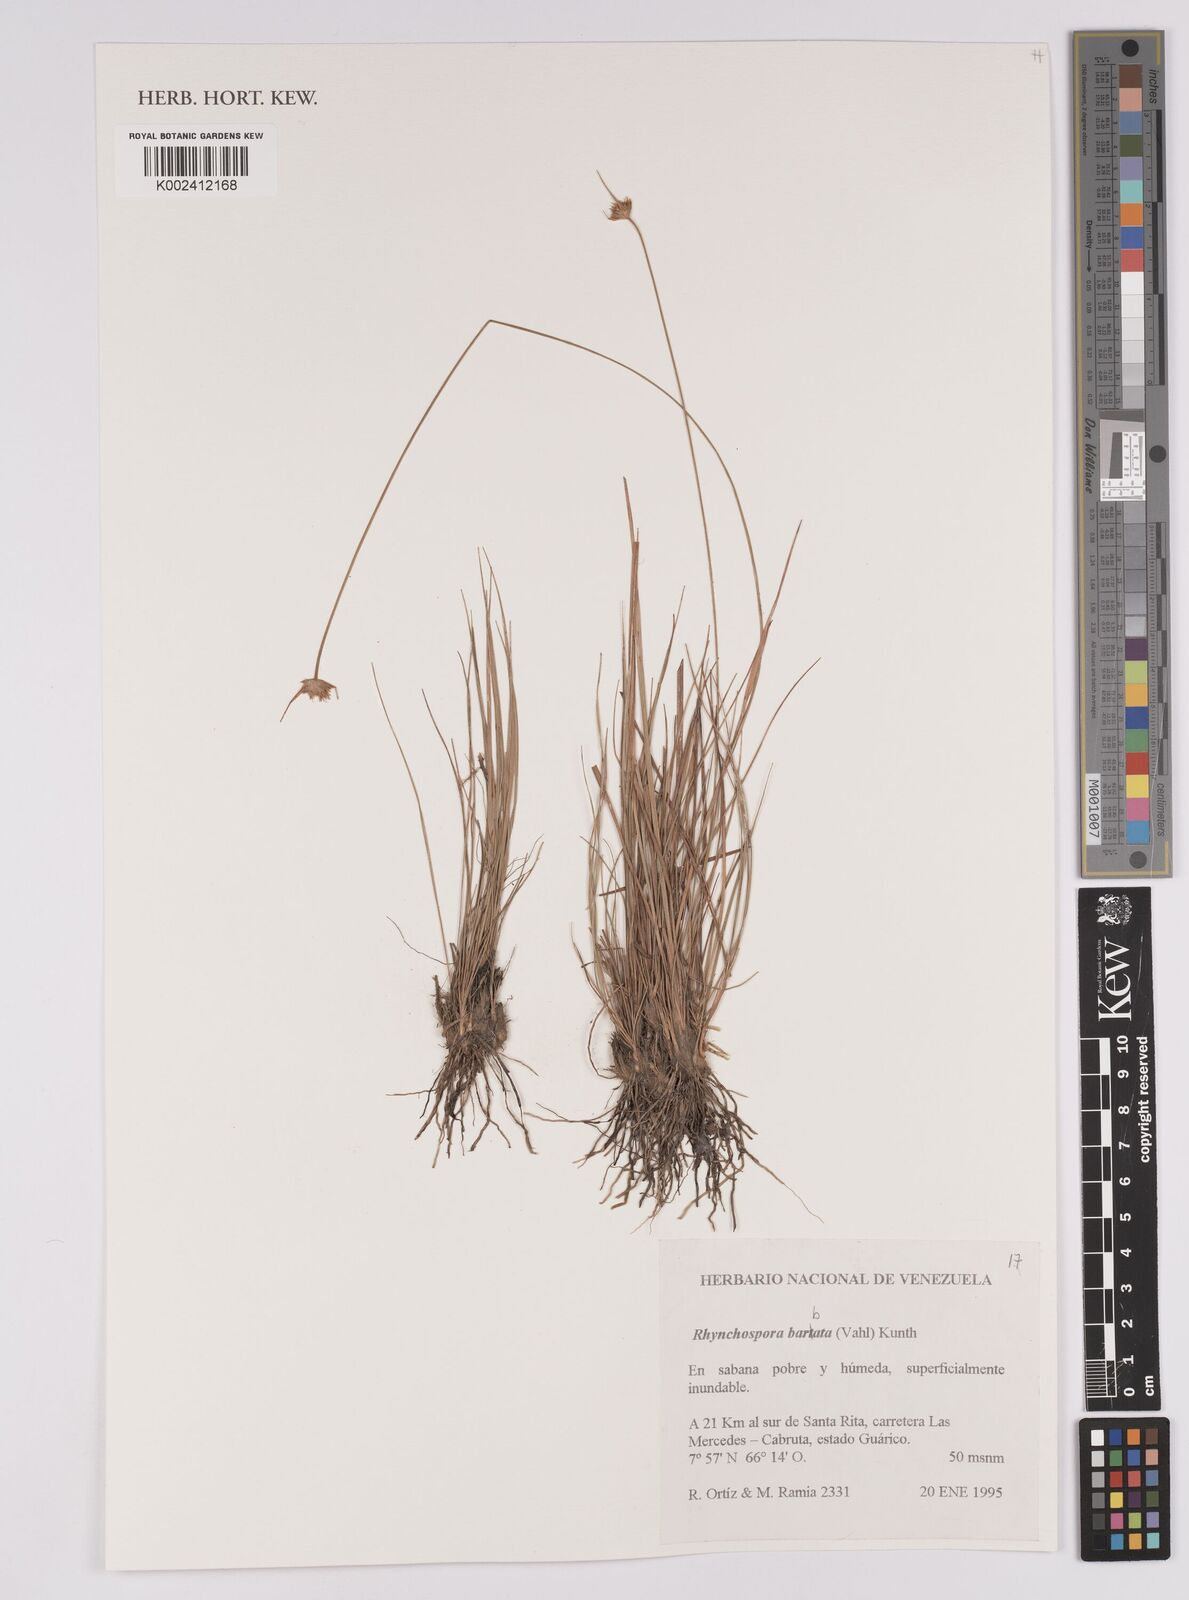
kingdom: Plantae
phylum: Tracheophyta
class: Liliopsida
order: Poales
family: Cyperaceae
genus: Rhynchospora
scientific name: Rhynchospora barbata
